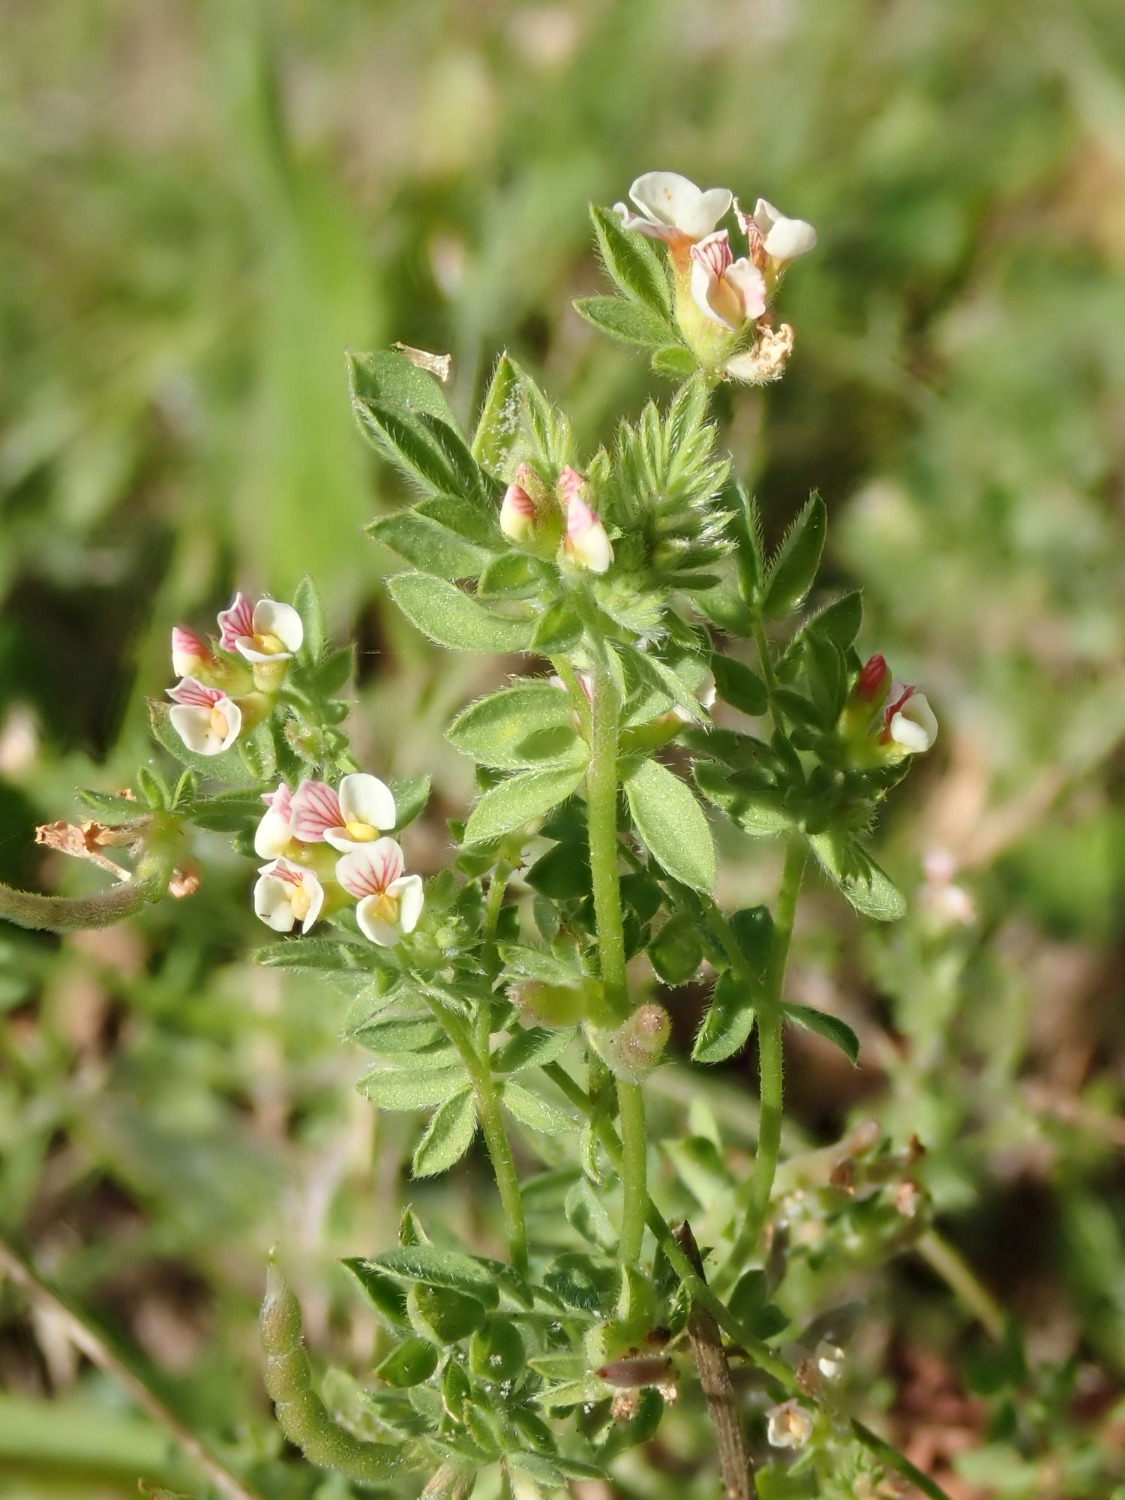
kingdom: Plantae
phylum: Tracheophyta
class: Magnoliopsida
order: Fabales
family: Fabaceae
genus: Ornithopus
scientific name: Ornithopus perpusillus
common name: Liden fugleklo
